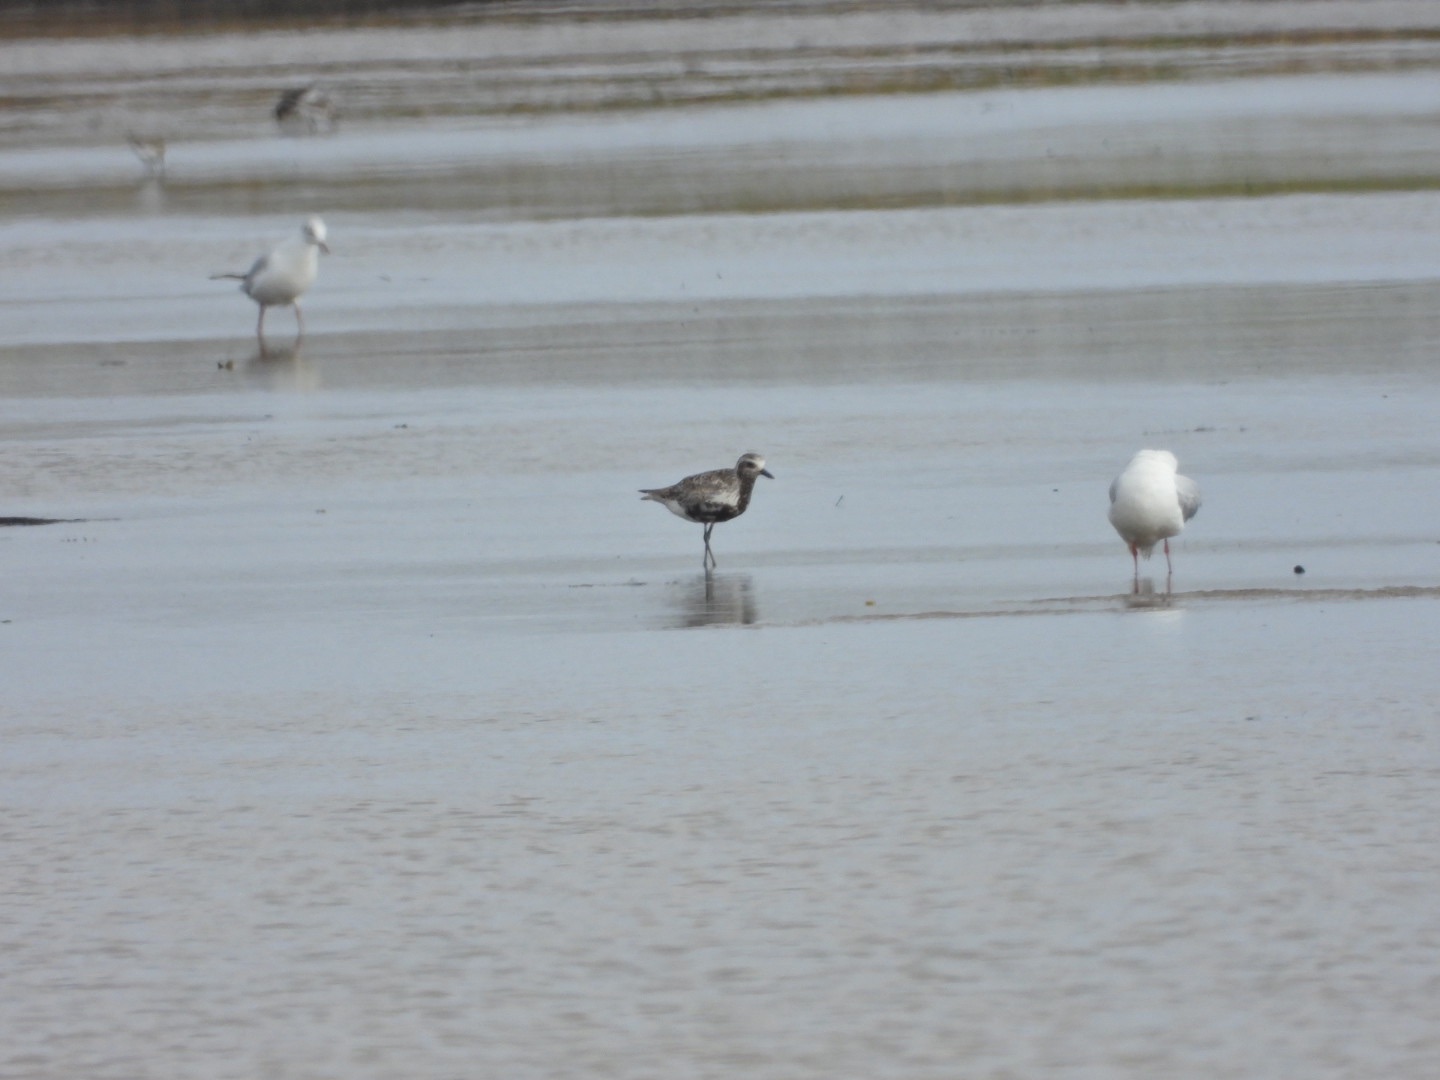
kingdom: Animalia
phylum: Chordata
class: Aves
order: Charadriiformes
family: Charadriidae
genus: Pluvialis
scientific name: Pluvialis squatarola
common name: Strandhjejle
